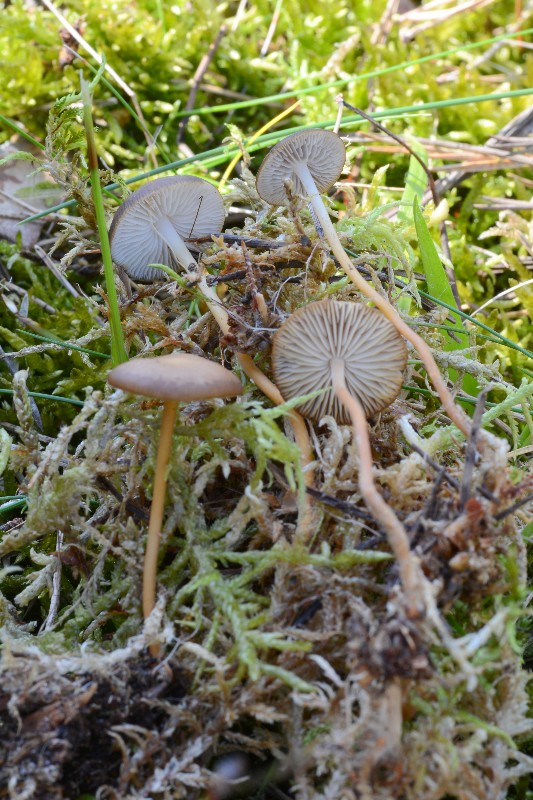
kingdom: Fungi
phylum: Basidiomycota
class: Agaricomycetes
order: Agaricales
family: Physalacriaceae
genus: Strobilurus
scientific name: Strobilurus tenacellus
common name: sommer-koglehat
